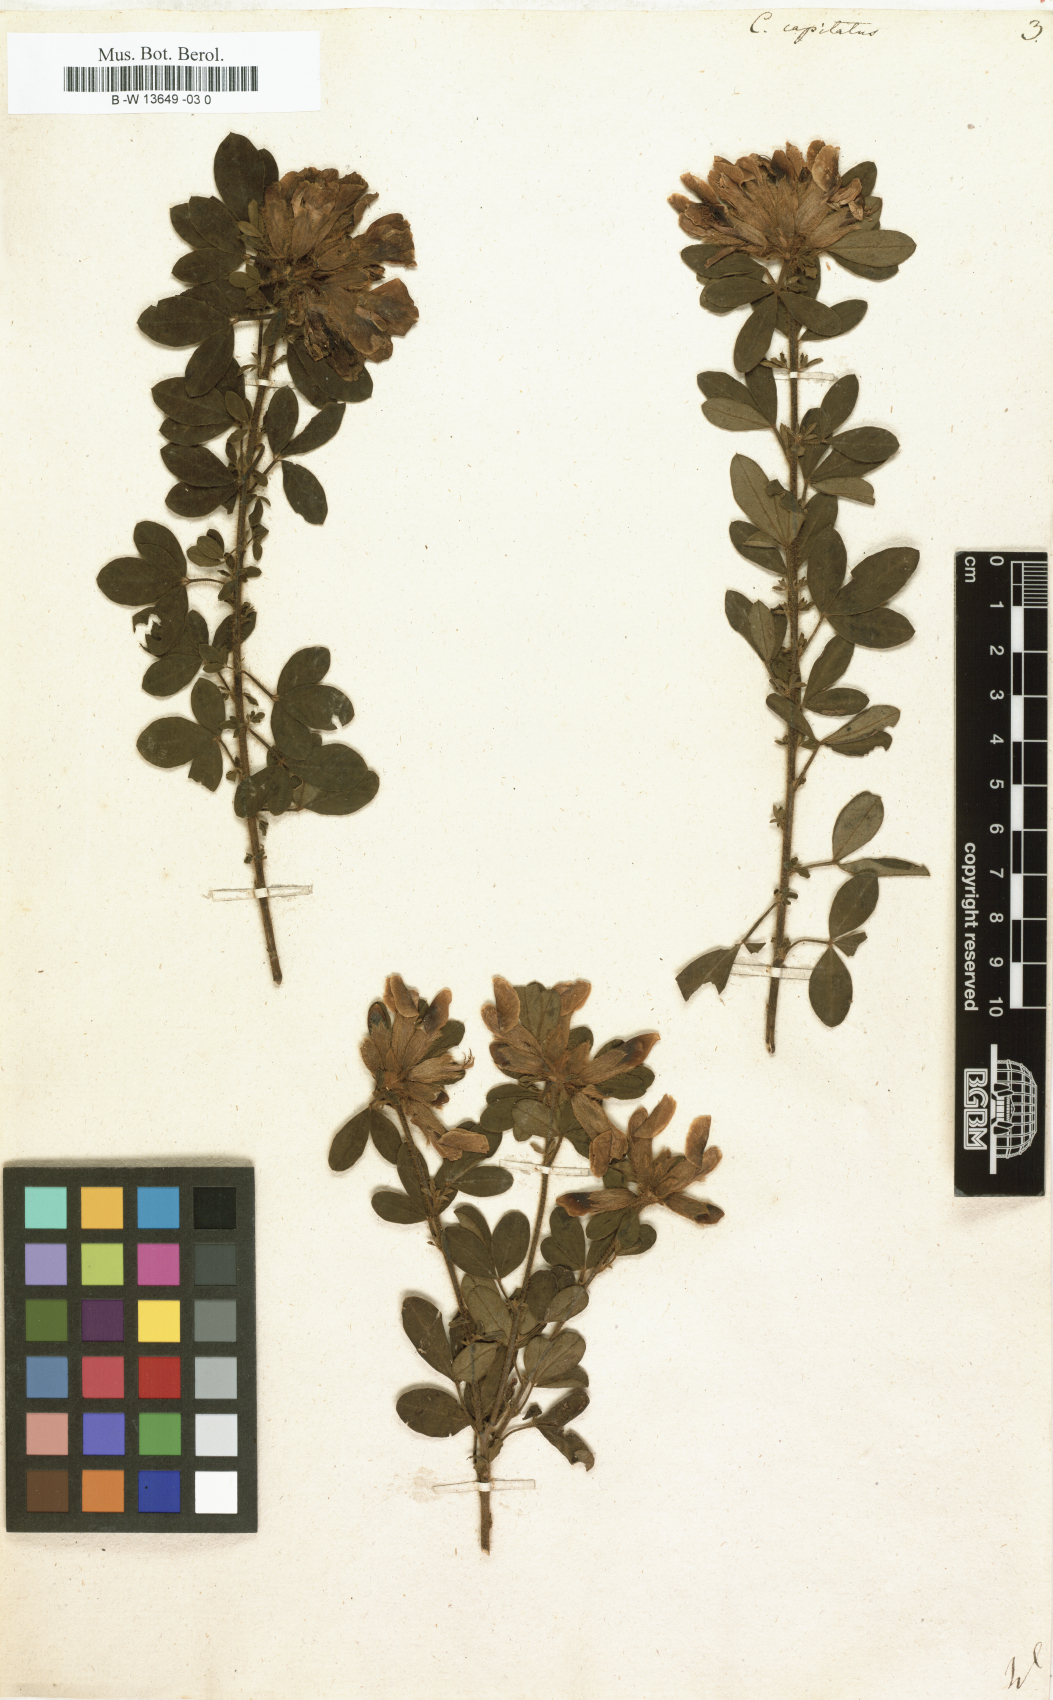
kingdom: Plantae
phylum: Tracheophyta
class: Magnoliopsida
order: Fabales
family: Fabaceae
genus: Chamaecytisus
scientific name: Chamaecytisus hirsutus
